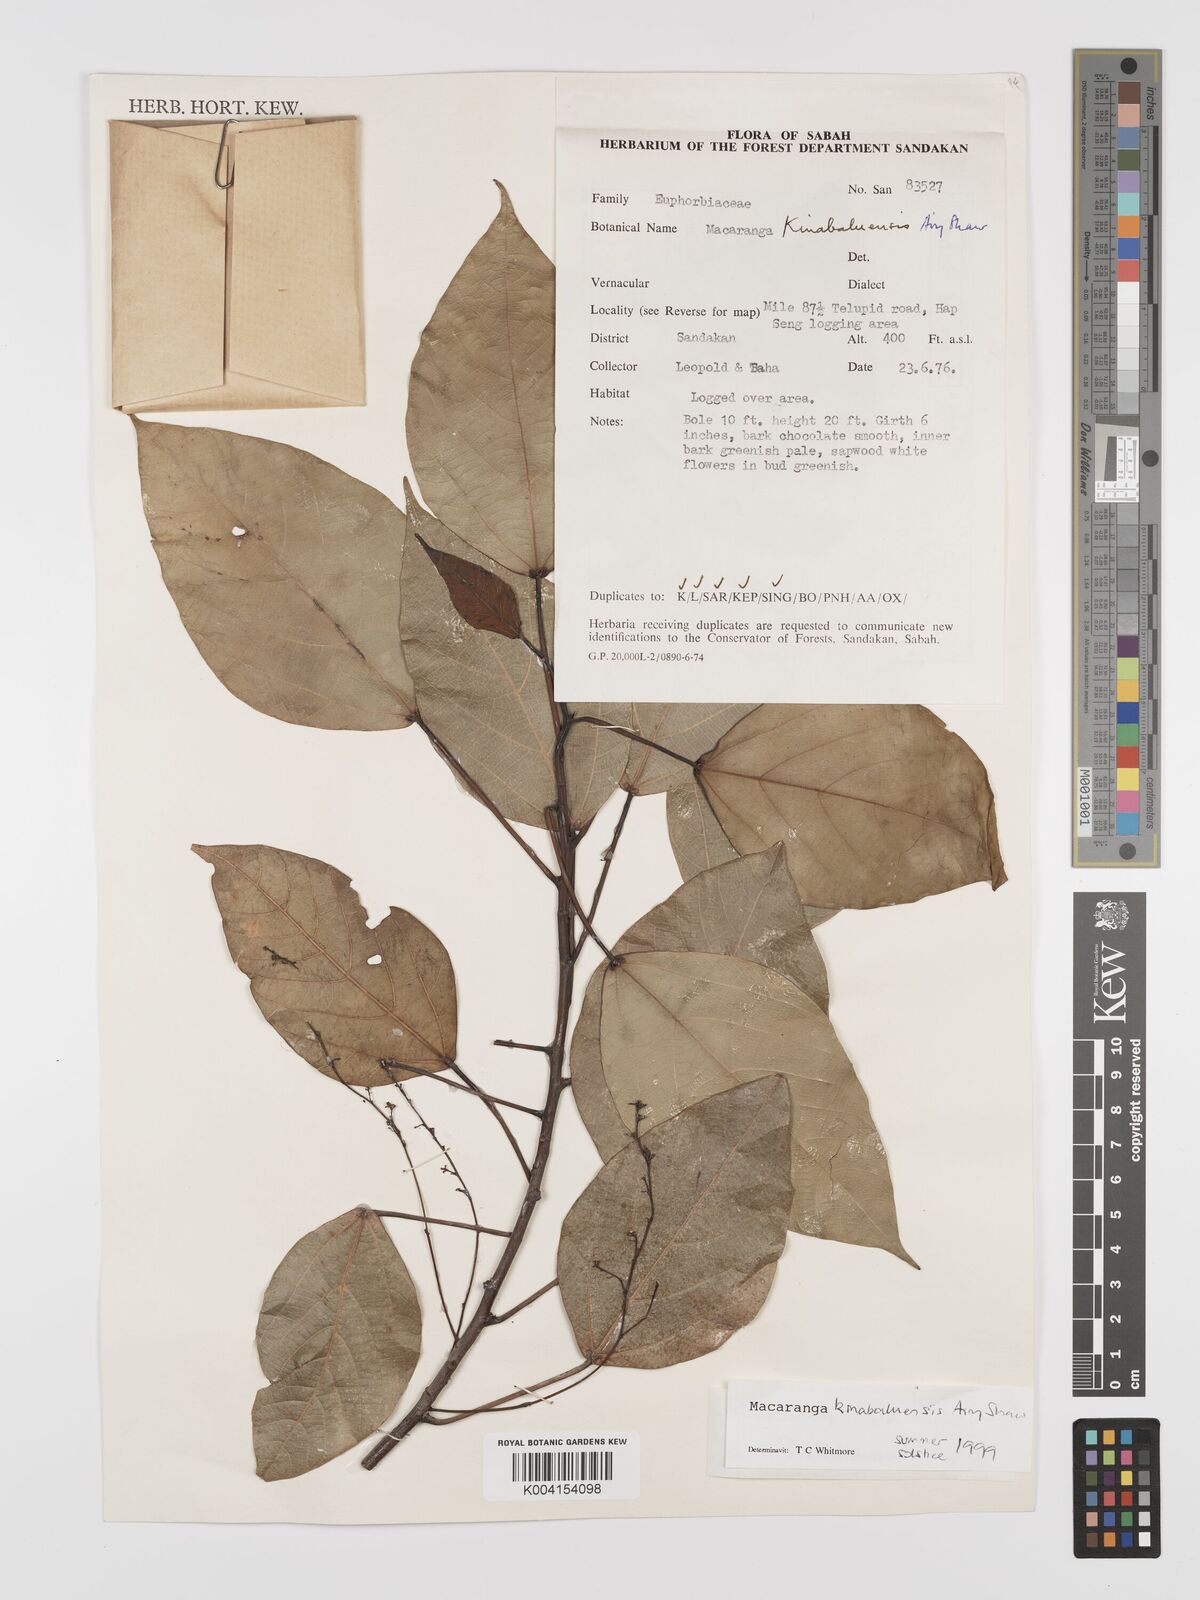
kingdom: Plantae
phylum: Tracheophyta
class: Magnoliopsida
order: Malpighiales
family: Euphorbiaceae
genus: Macaranga
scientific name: Macaranga kinabaluensis
